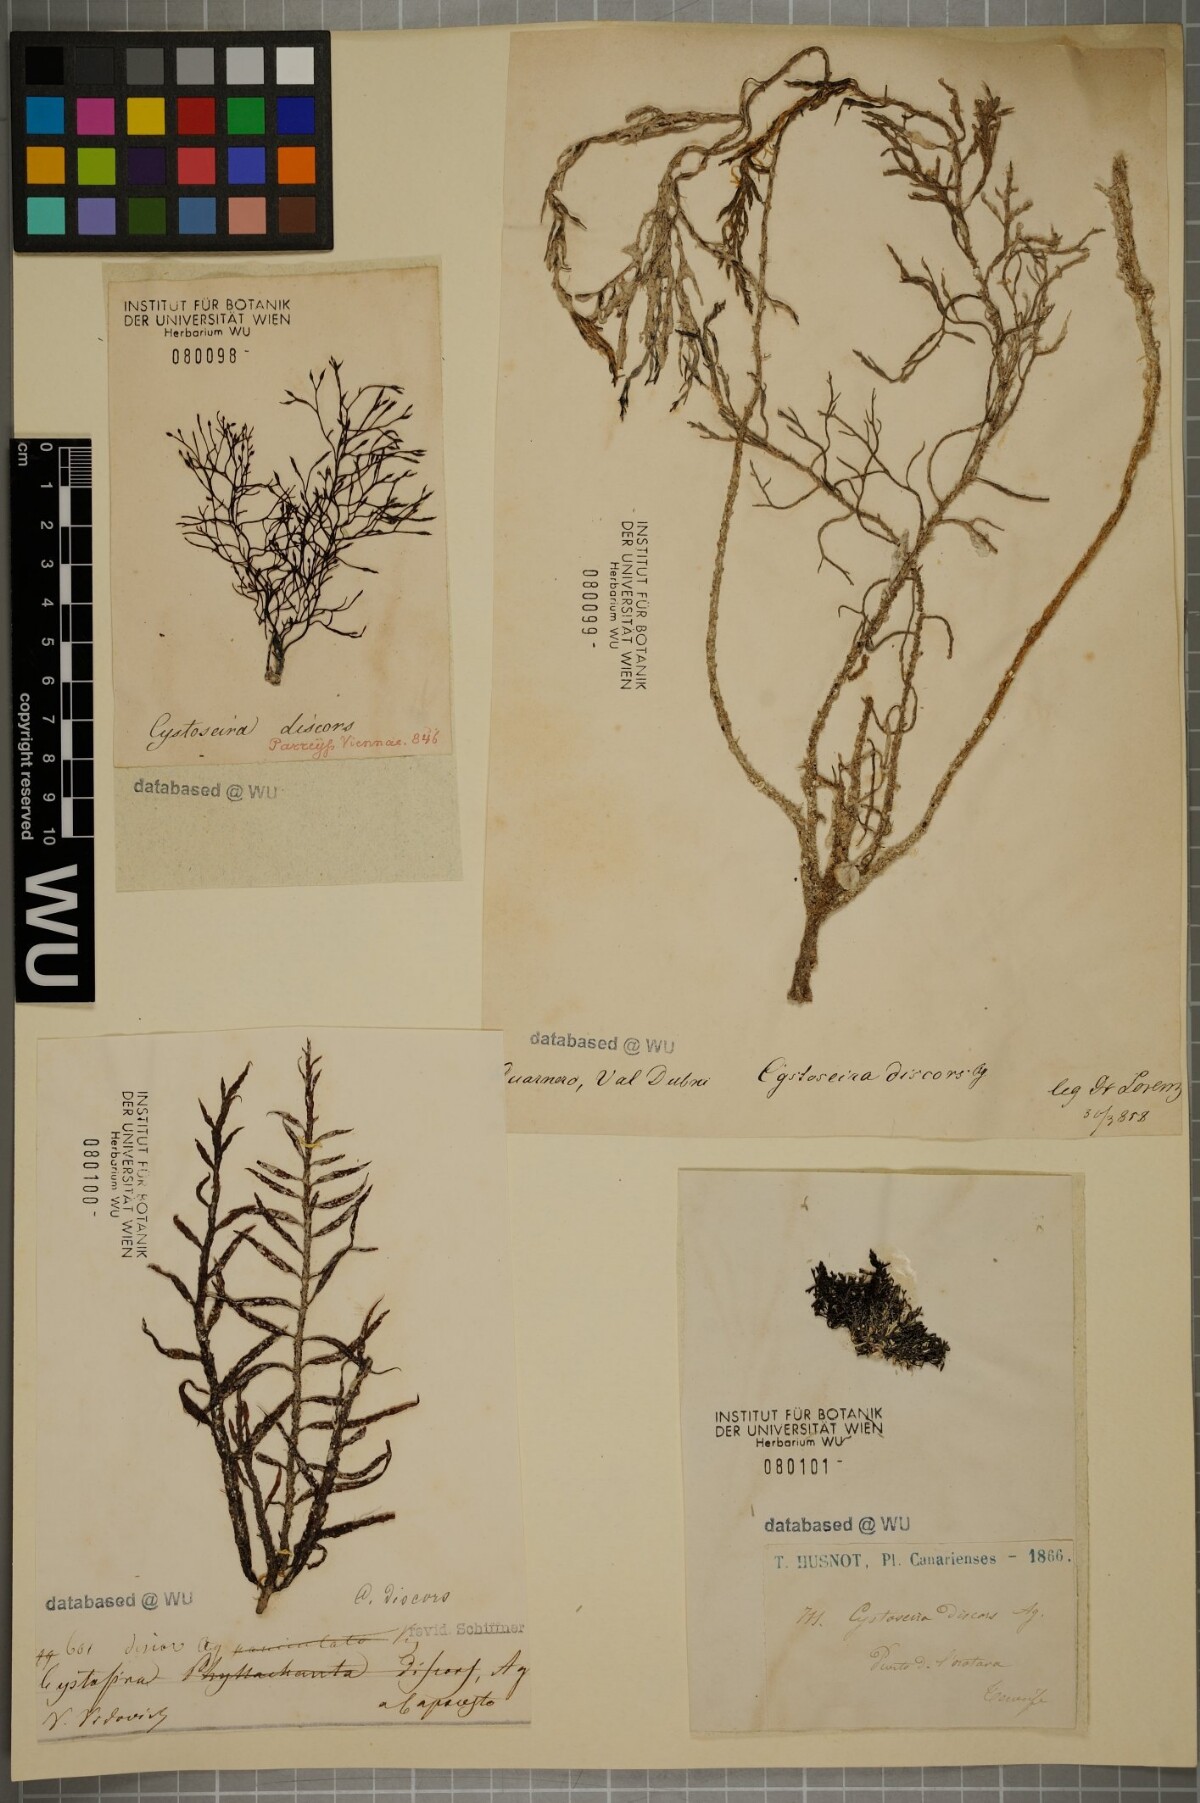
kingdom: Chromista
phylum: Ochrophyta
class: Phaeophyceae
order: Fucales
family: Sargassaceae
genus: Cystoseira
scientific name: Cystoseira foeniculacea
